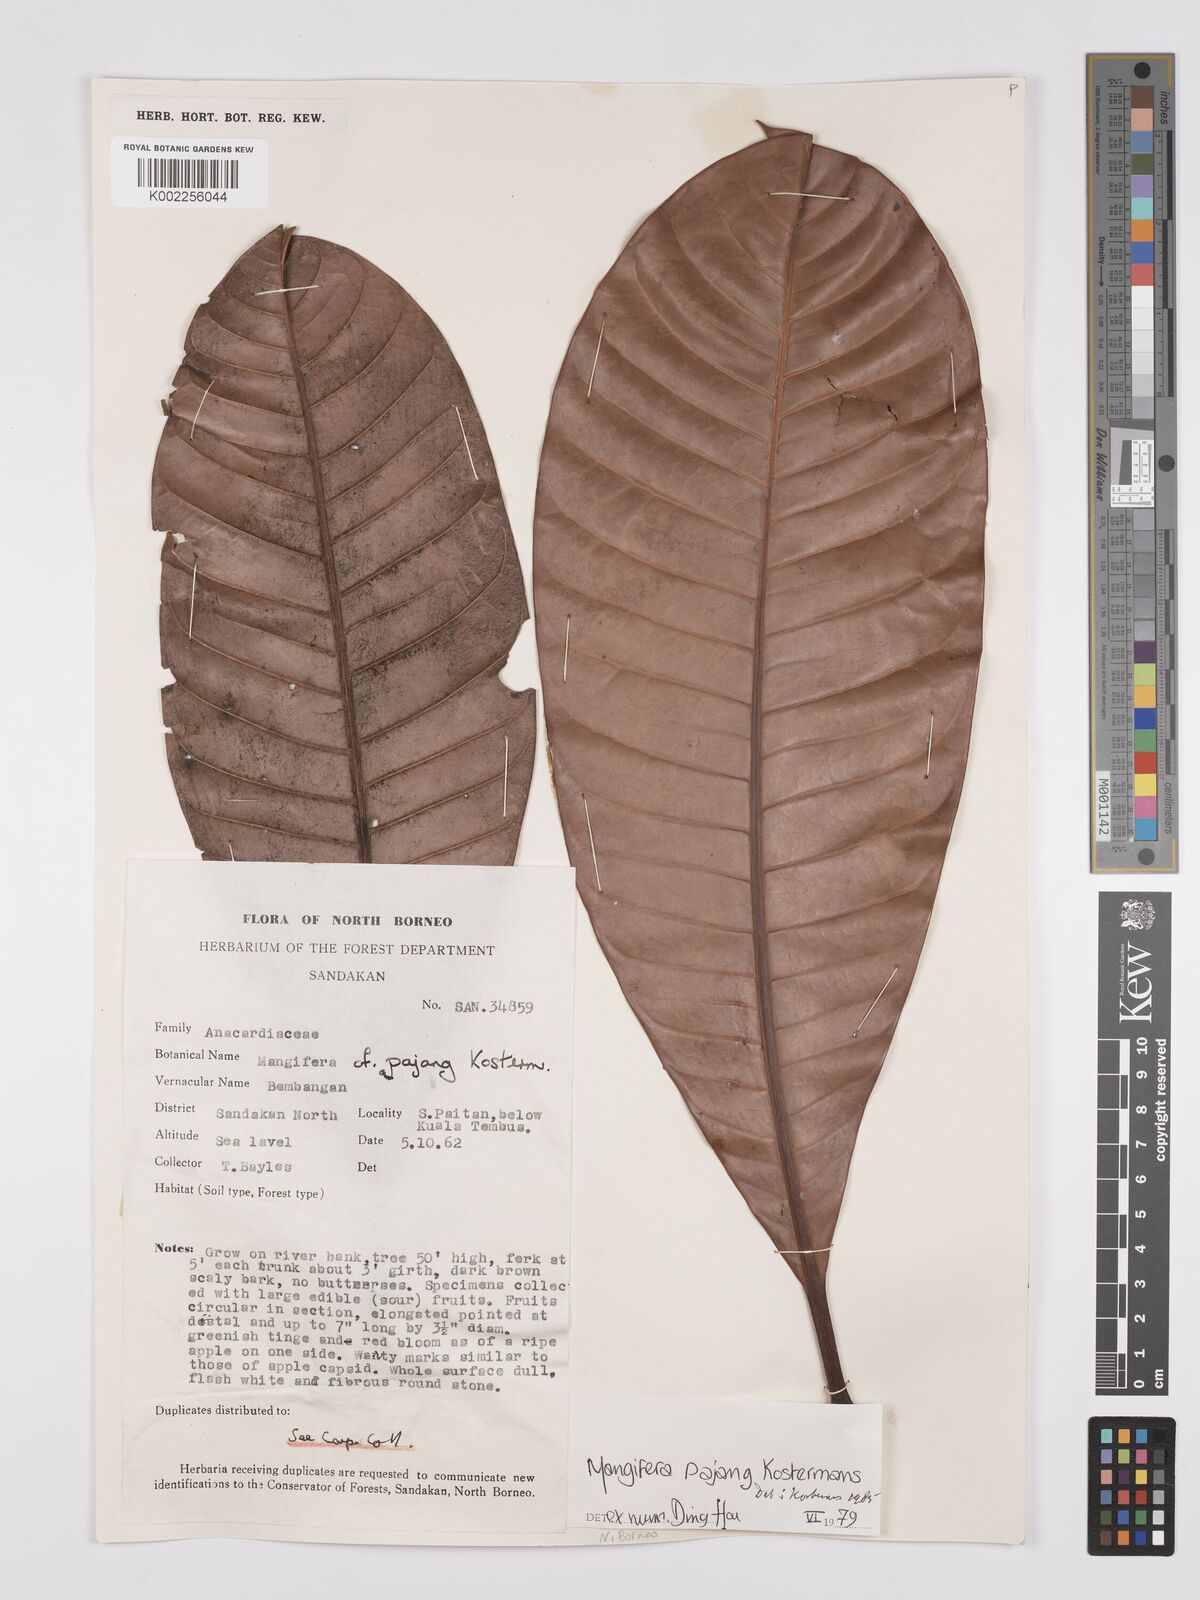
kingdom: Plantae
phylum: Tracheophyta
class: Magnoliopsida
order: Sapindales
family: Anacardiaceae
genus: Mangifera
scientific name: Mangifera pajang
